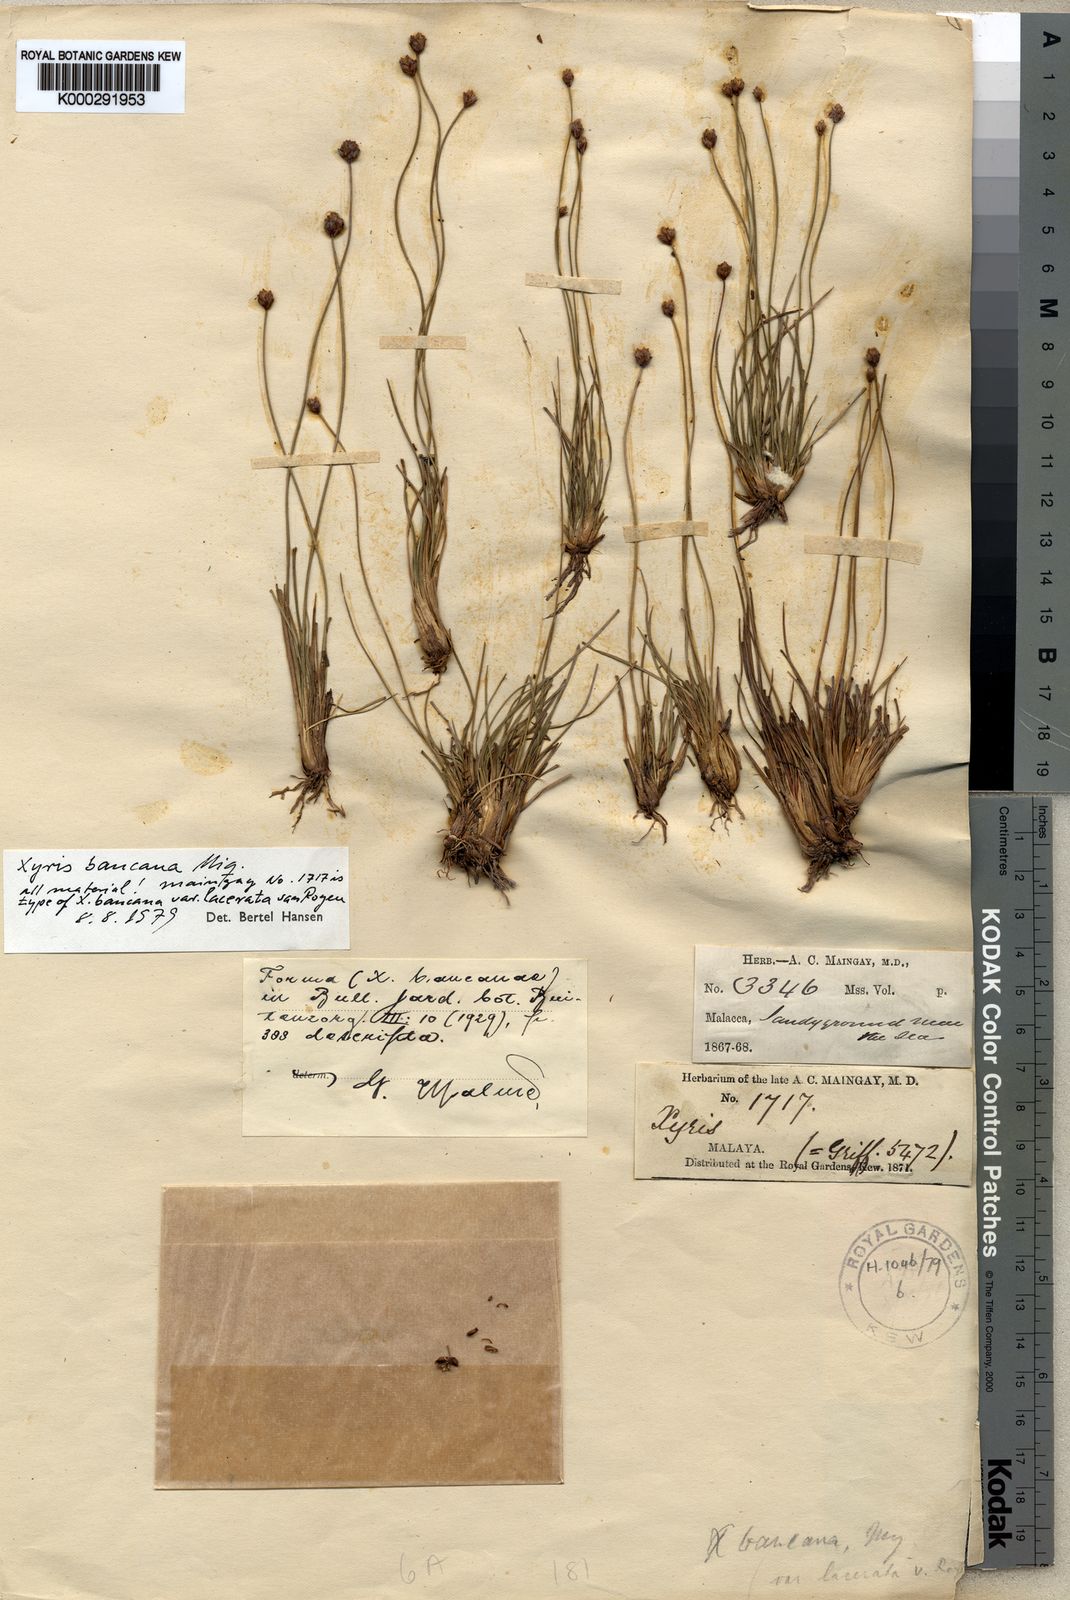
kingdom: Plantae
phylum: Tracheophyta
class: Liliopsida
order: Poales
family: Xyridaceae
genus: Xyris
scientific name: Xyris bancana
